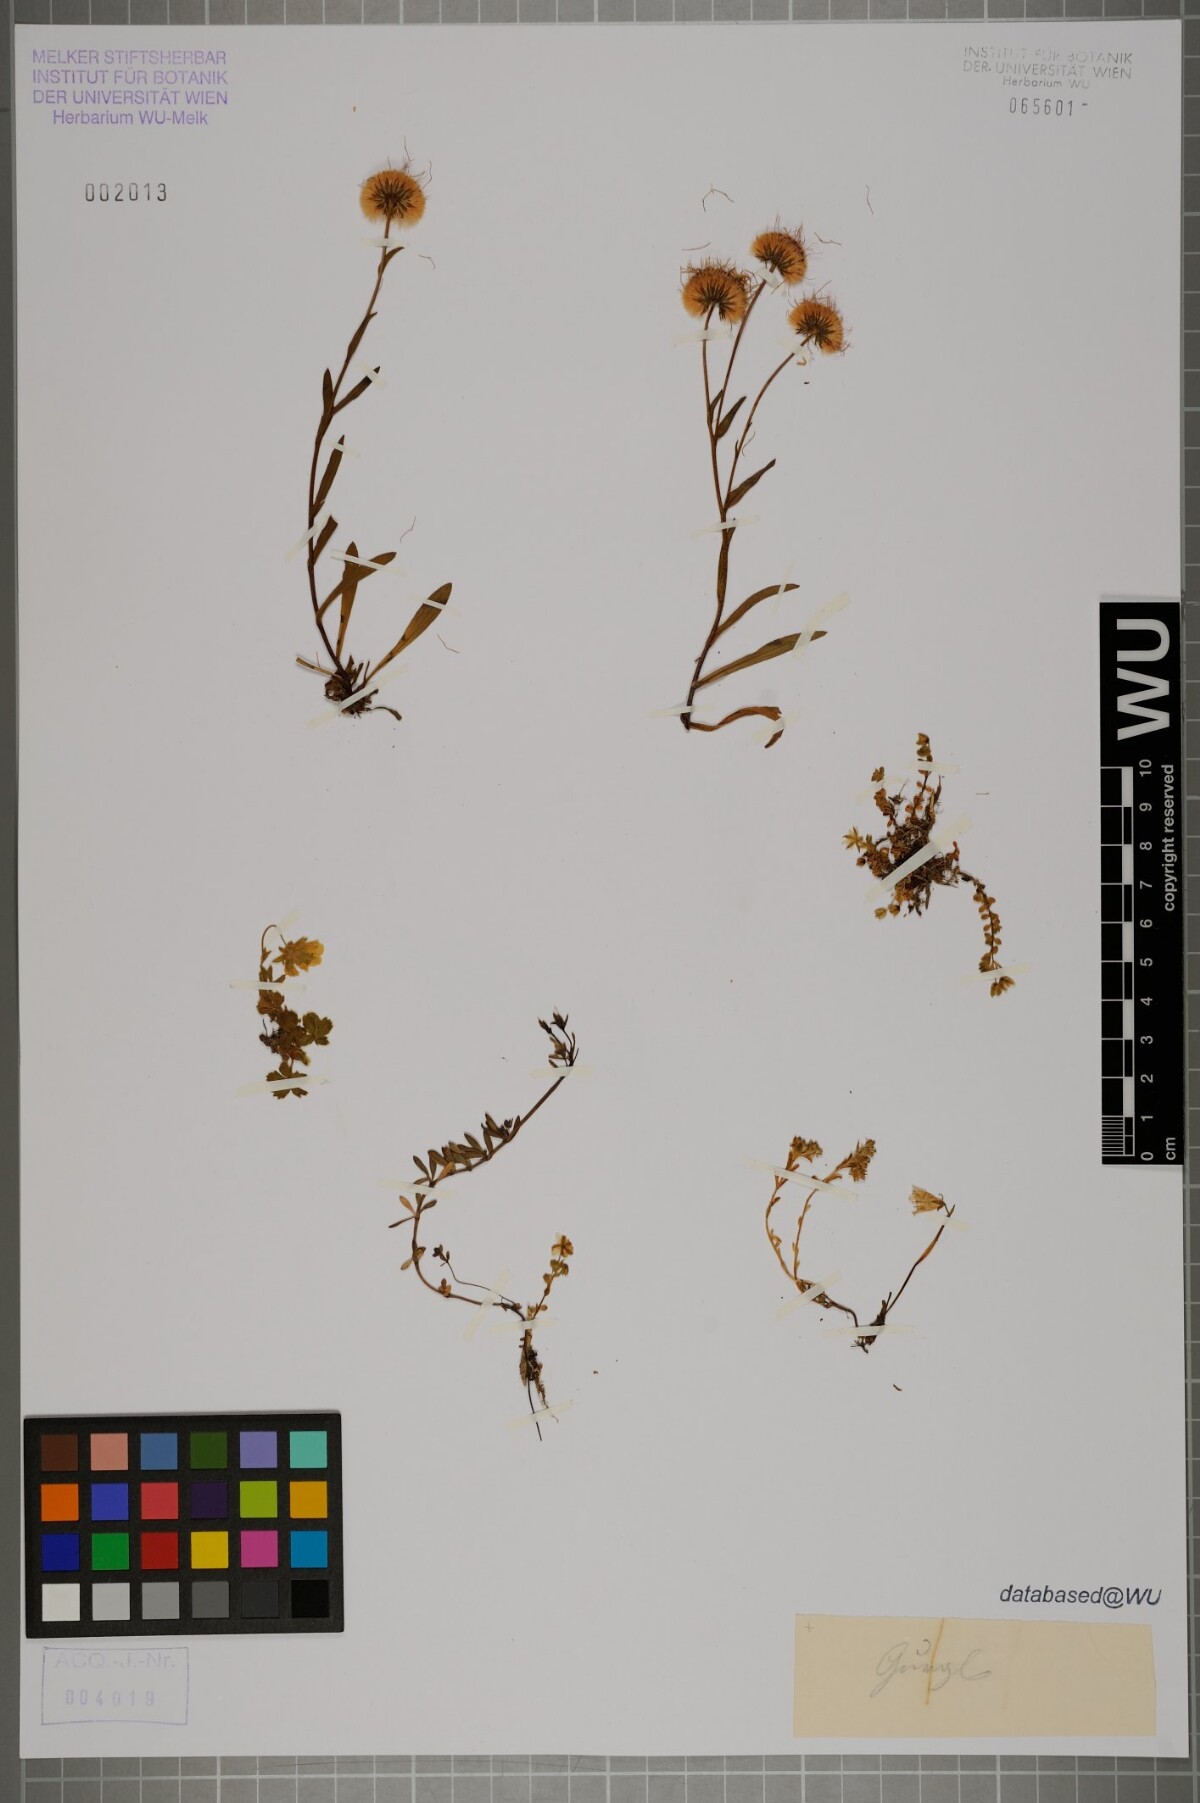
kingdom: Plantae
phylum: Tracheophyta
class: Magnoliopsida
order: Asterales
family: Asteraceae
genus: Erigeron
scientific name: Erigeron alpinus
